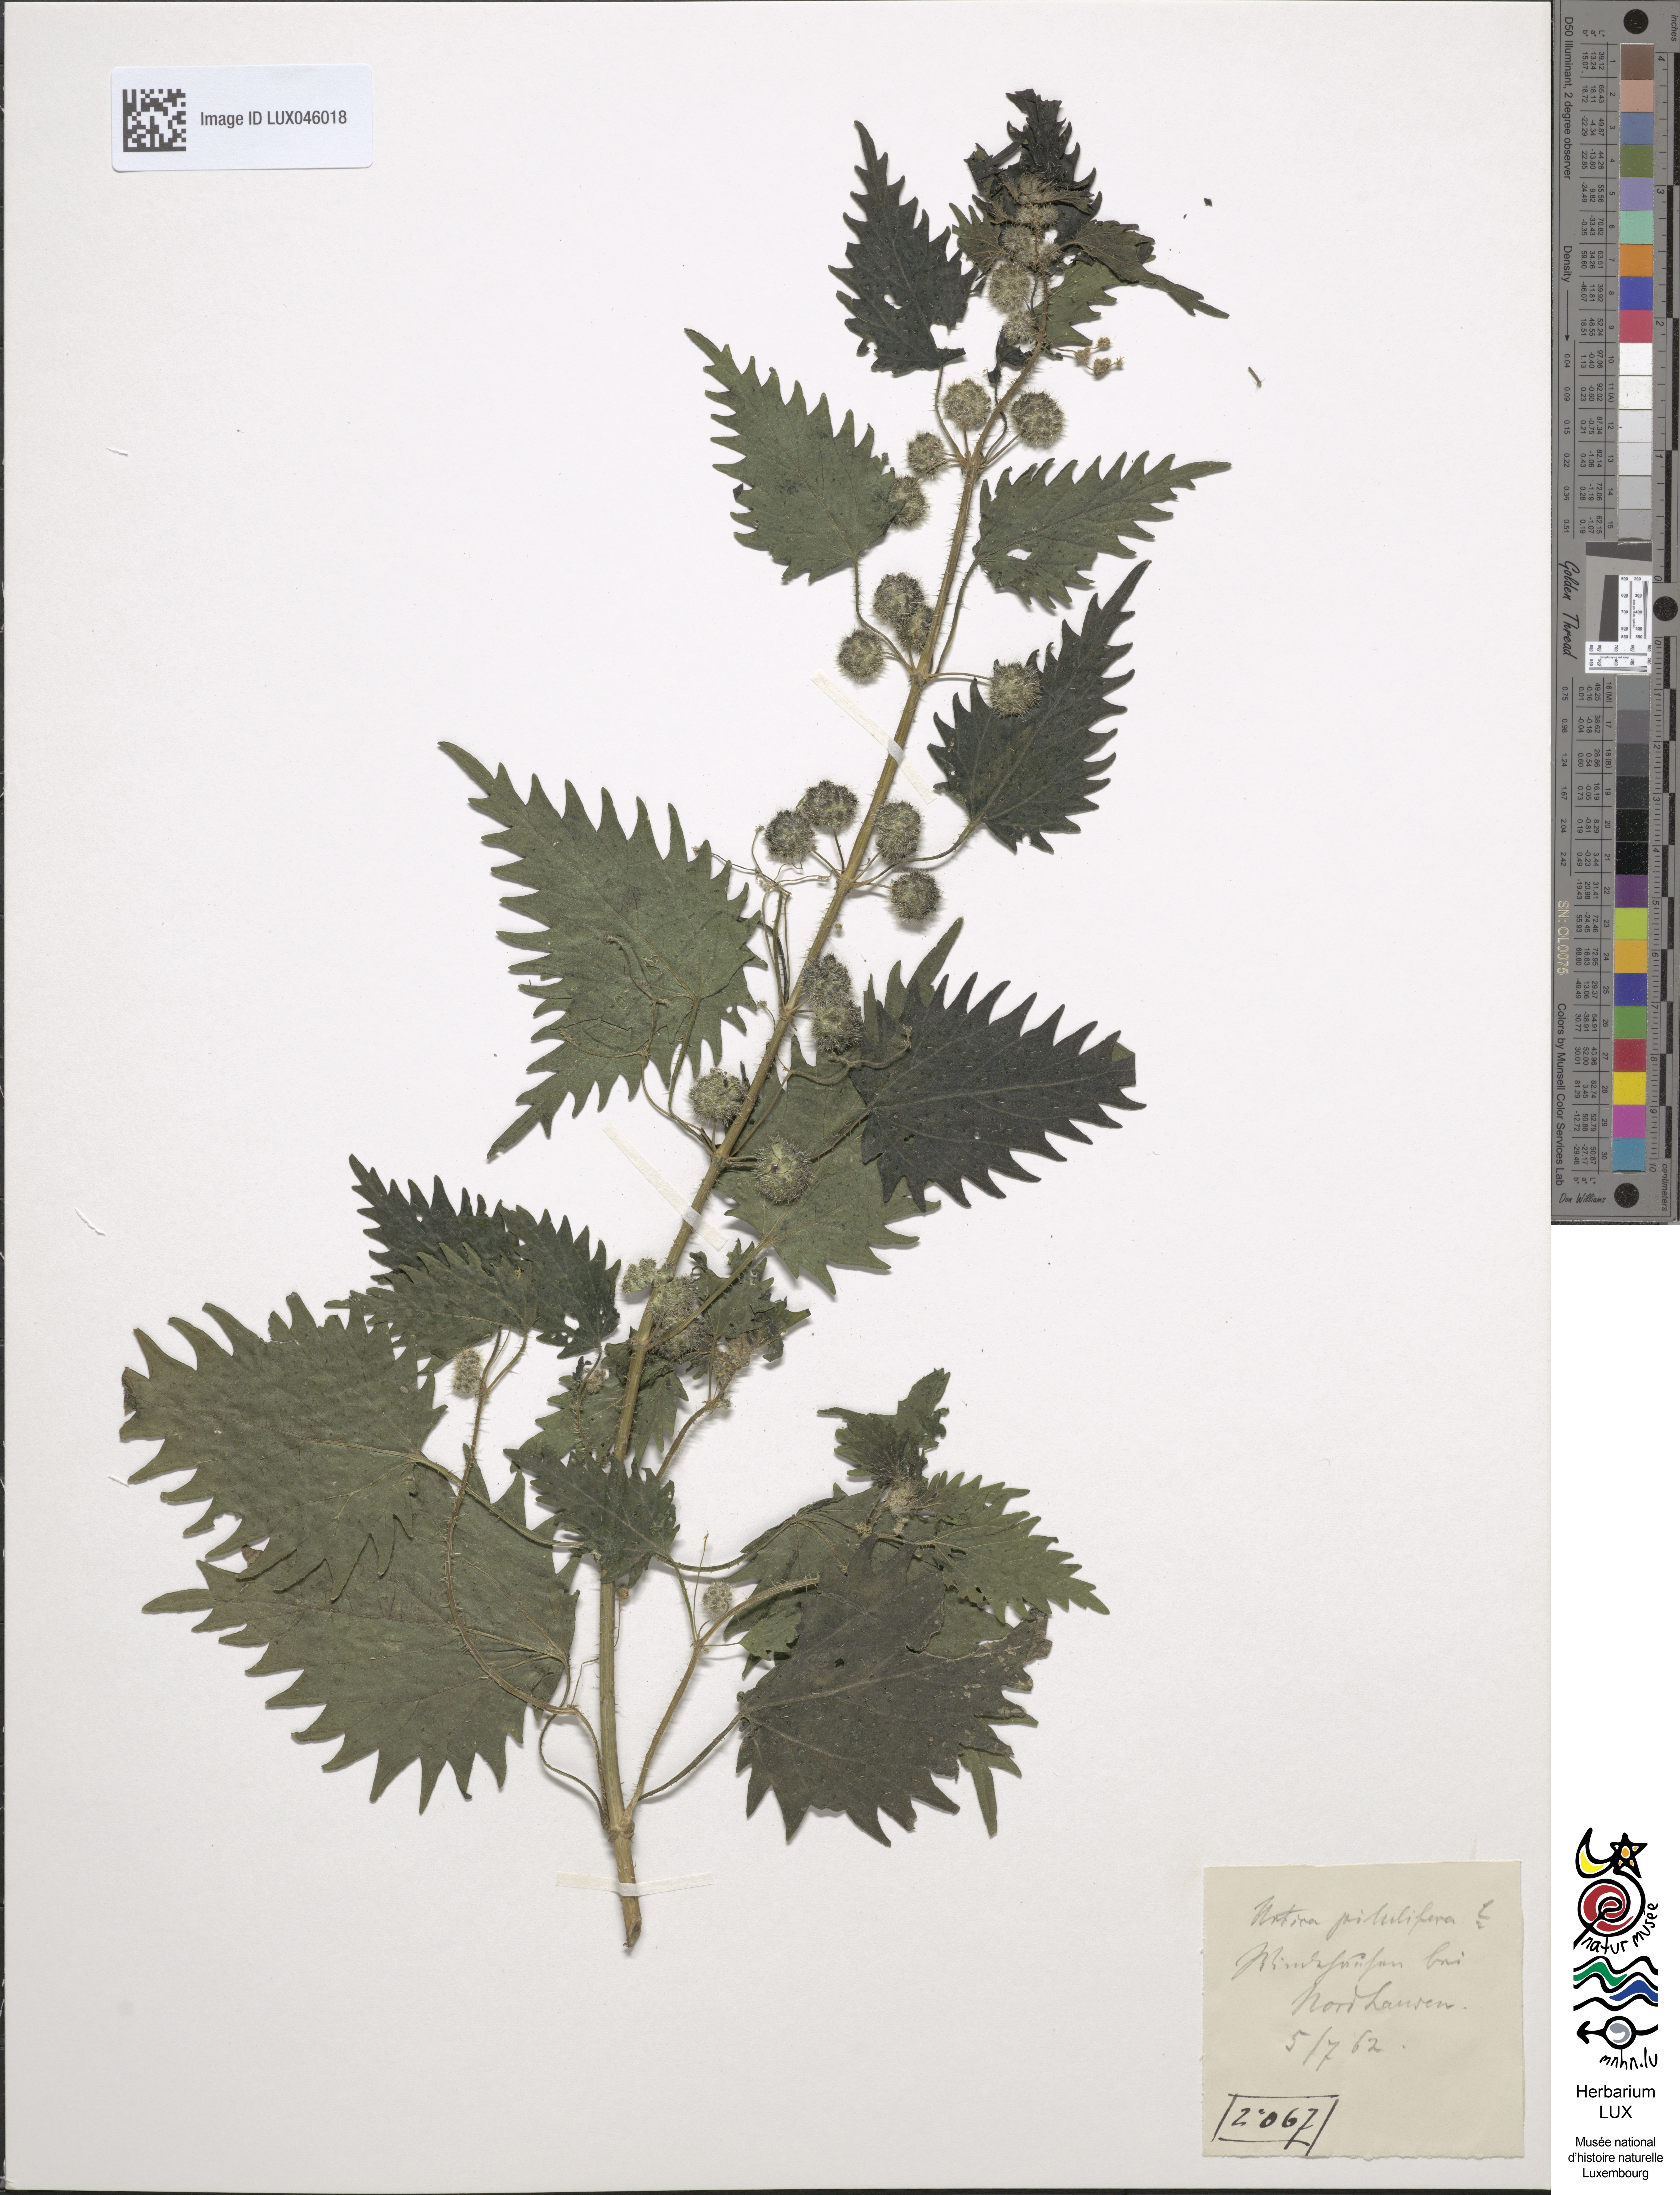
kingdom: Plantae
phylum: Tracheophyta
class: Magnoliopsida
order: Rosales
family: Urticaceae
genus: Urtica
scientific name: Urtica pilulifera
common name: Roman nettle
